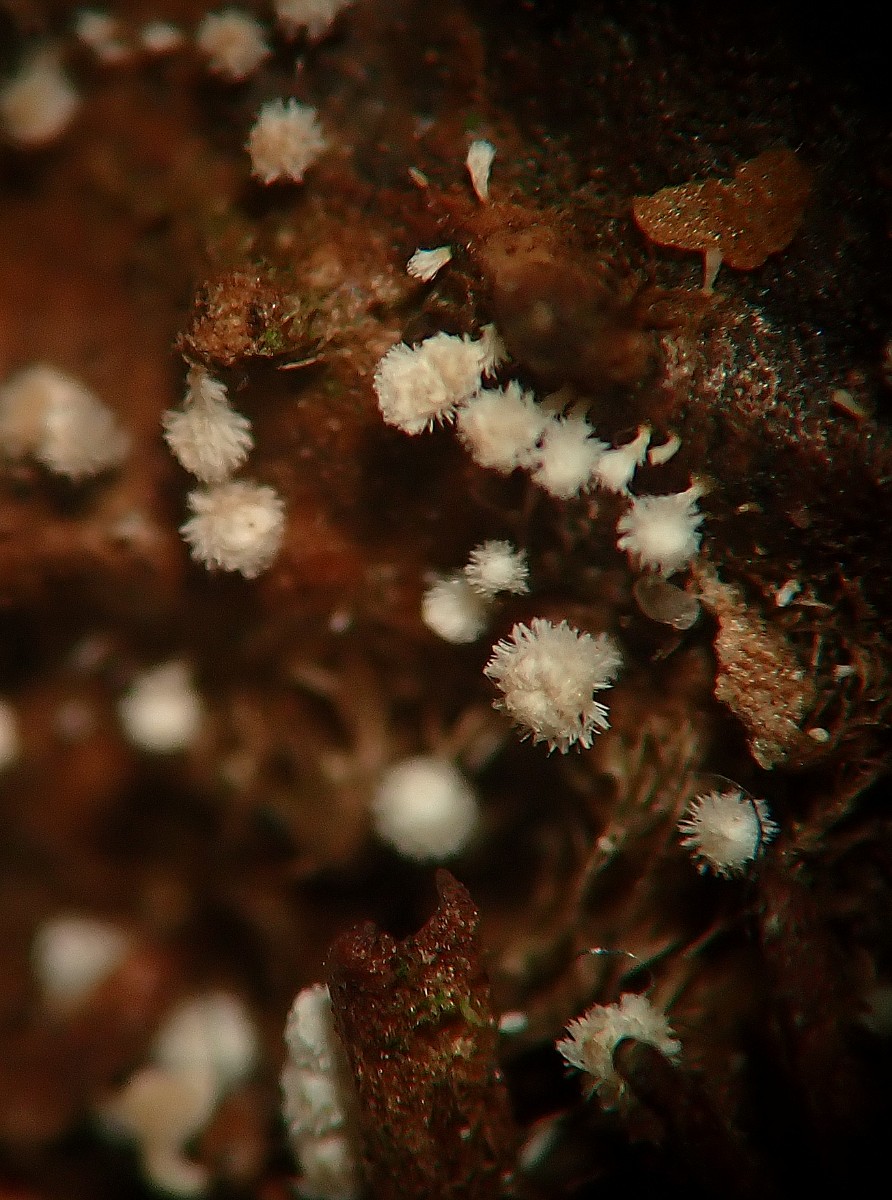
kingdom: Fungi
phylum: Ascomycota
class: Leotiomycetes
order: Helotiales
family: Lachnaceae
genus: Lachnum
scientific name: Lachnum virgineum
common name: jomfru-frynseskive
